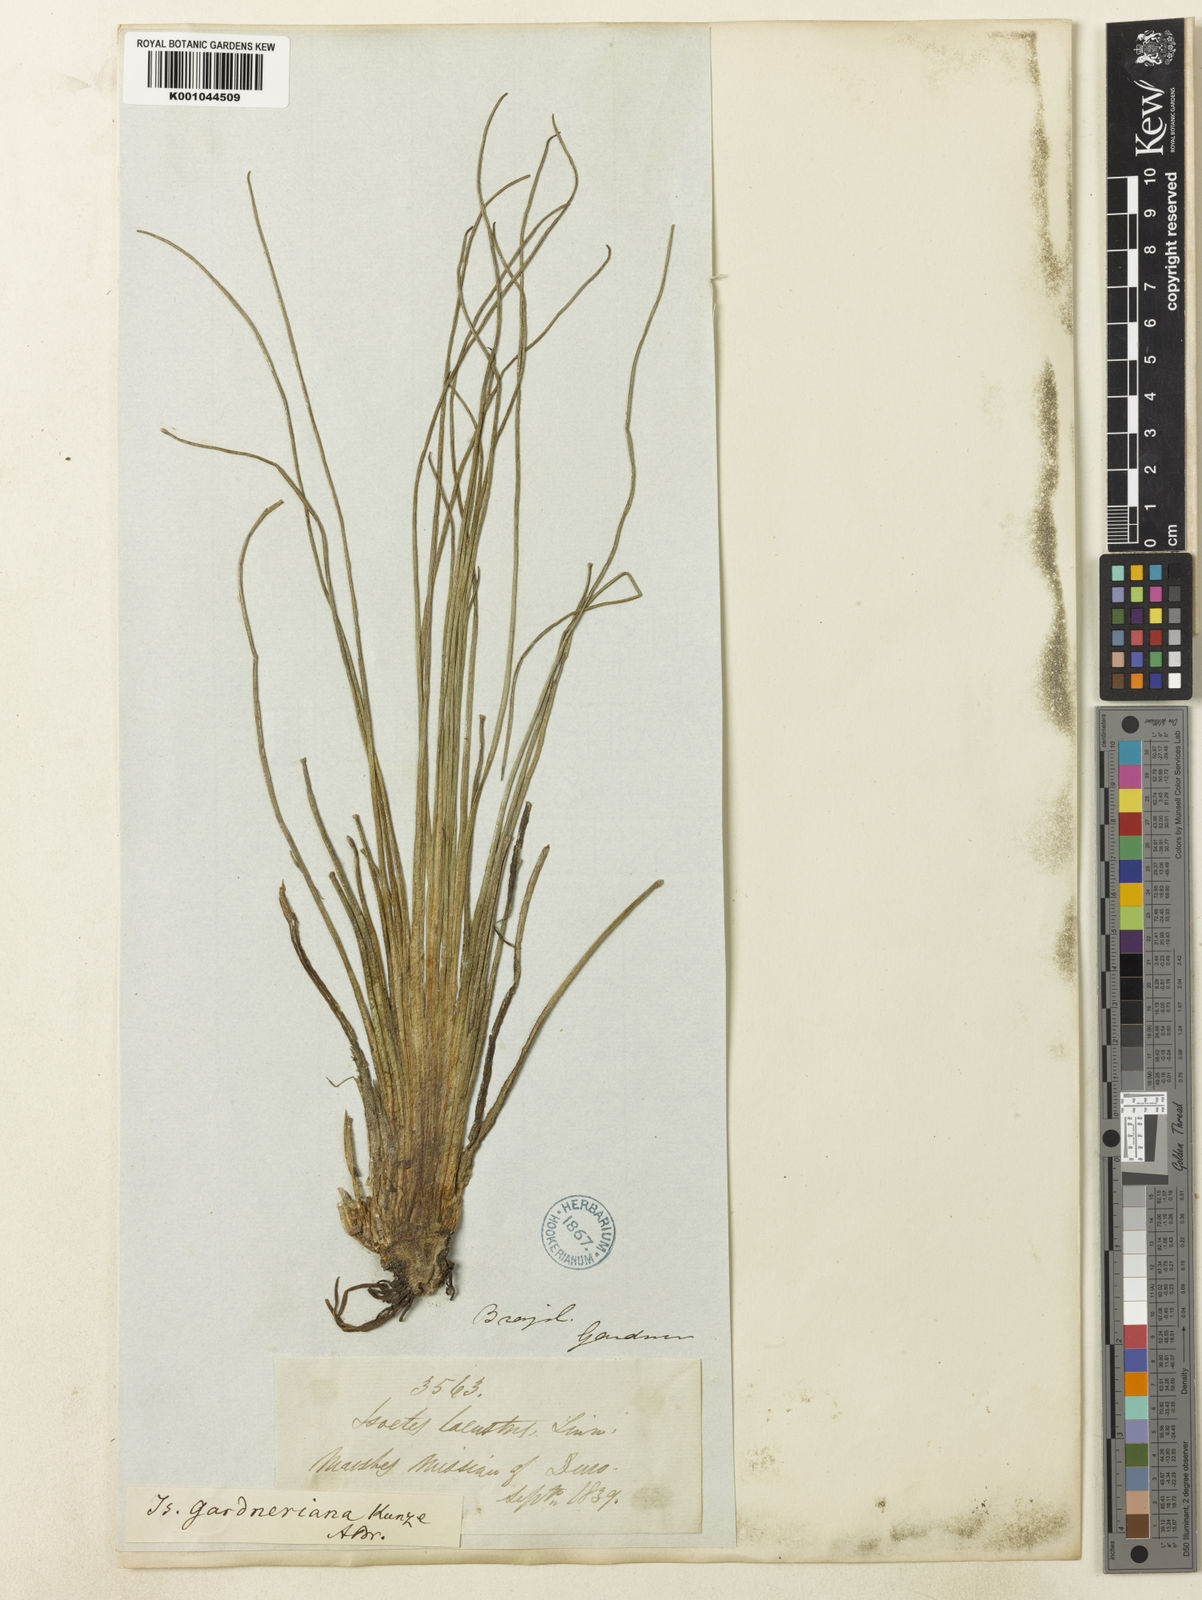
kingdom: Plantae
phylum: Tracheophyta
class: Lycopodiopsida
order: Isoetales
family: Isoetaceae
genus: Isoetes
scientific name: Isoetes
